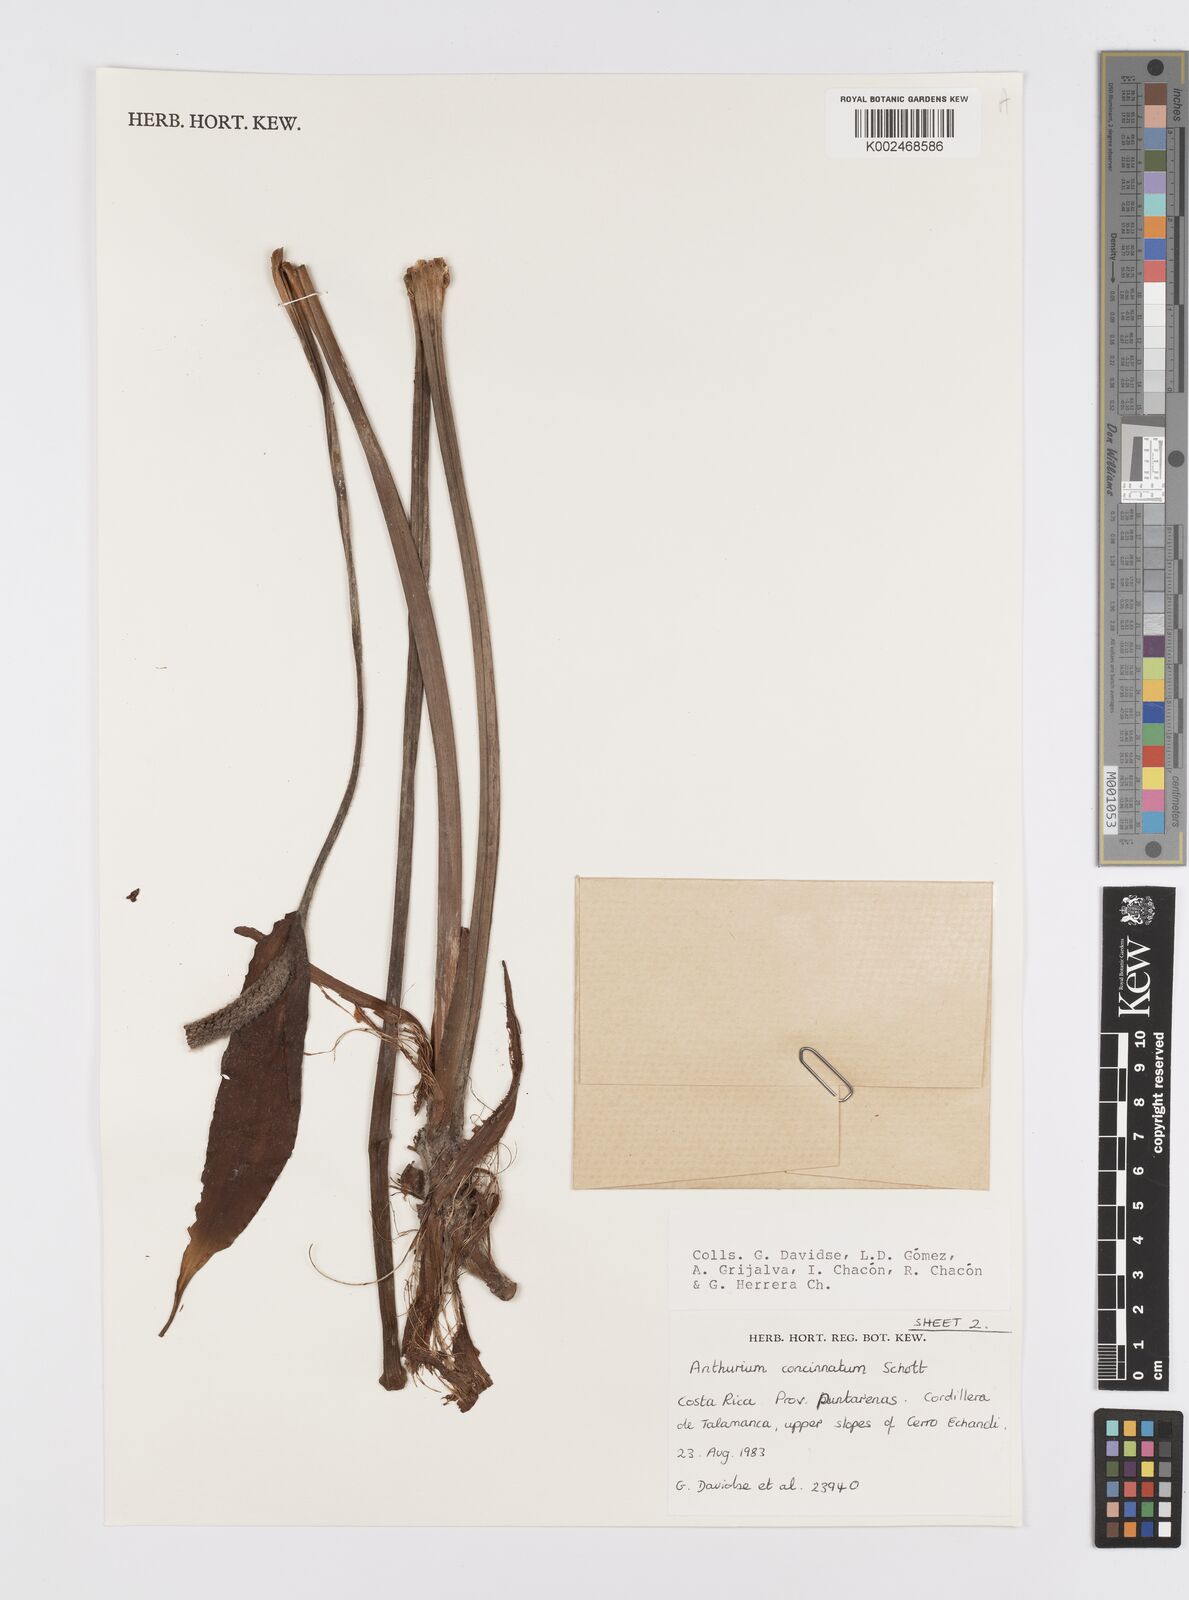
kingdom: Plantae
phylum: Tracheophyta
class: Liliopsida
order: Alismatales
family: Araceae
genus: Anthurium
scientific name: Anthurium concinnatum
